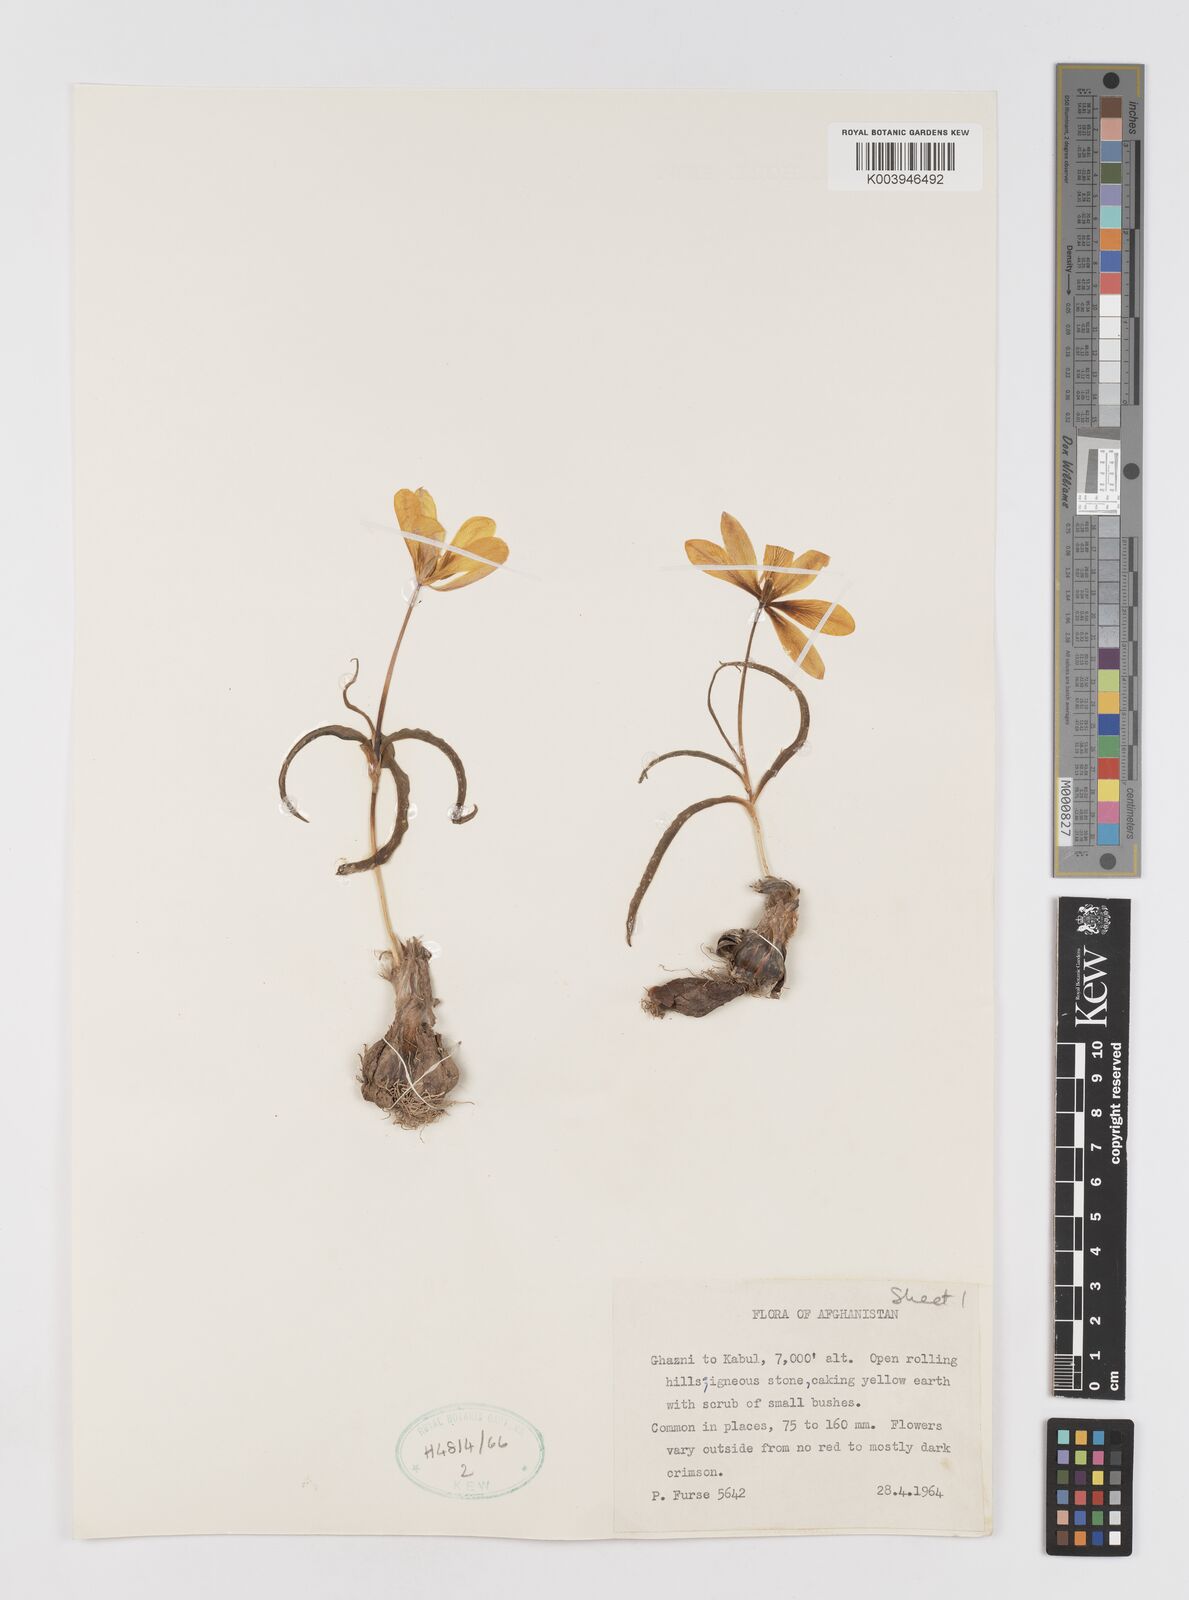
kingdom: Plantae
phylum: Tracheophyta
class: Liliopsida
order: Liliales
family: Liliaceae
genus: Tulipa
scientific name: Tulipa
